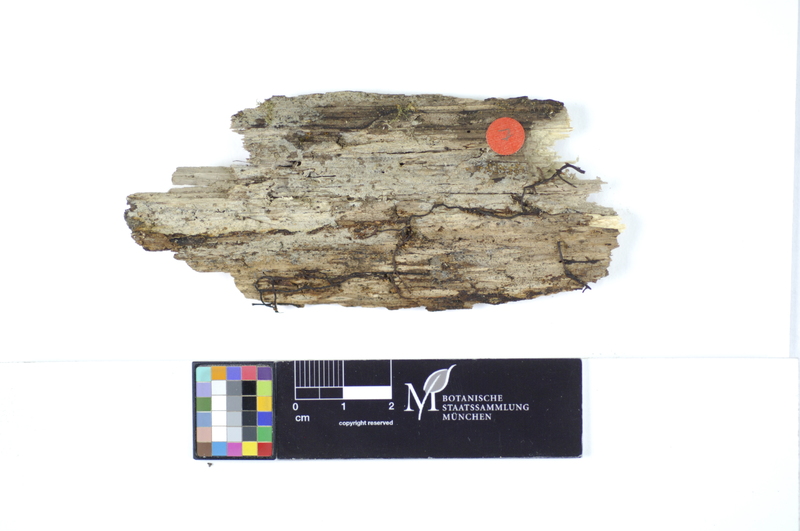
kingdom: Plantae
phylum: Tracheophyta
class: Magnoliopsida
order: Fagales
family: Betulaceae
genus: Corylus
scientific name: Corylus
